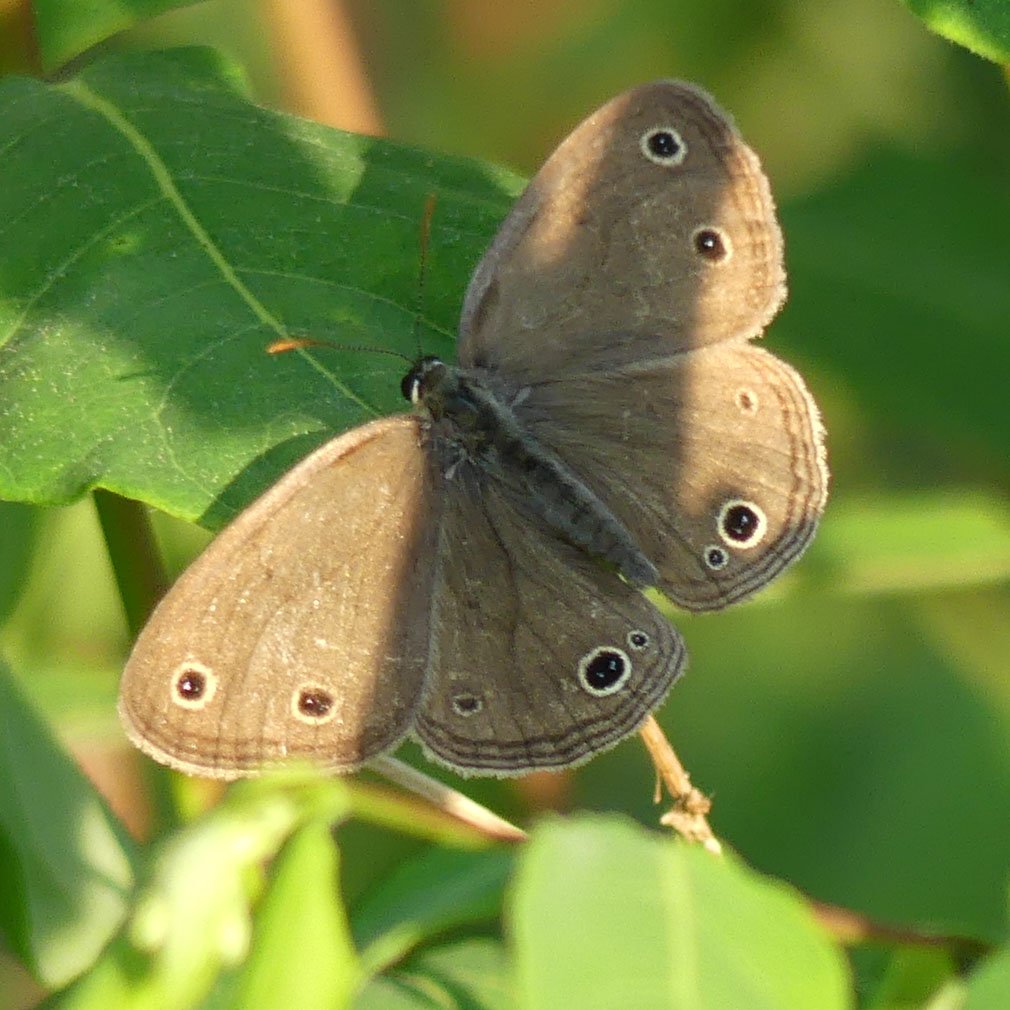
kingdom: Animalia
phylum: Arthropoda
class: Insecta
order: Lepidoptera
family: Nymphalidae
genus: Euptychia
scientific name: Euptychia cymela
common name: Little Wood Satyr
